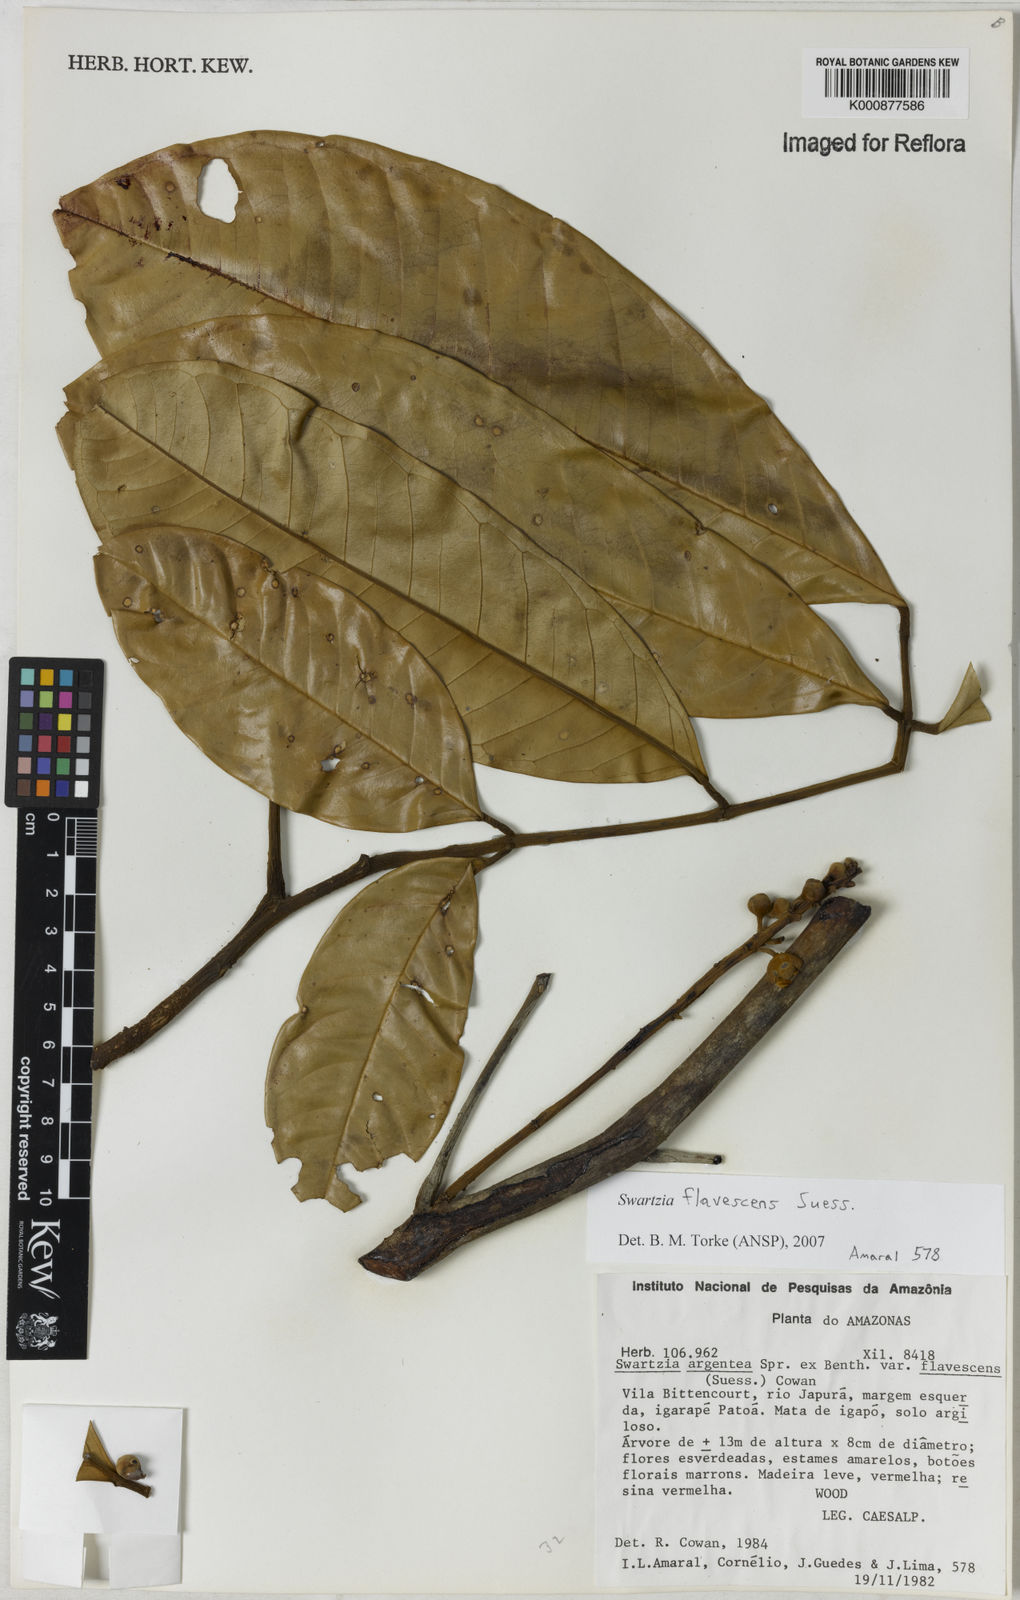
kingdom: Plantae
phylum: Tracheophyta
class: Magnoliopsida
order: Fabales
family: Fabaceae
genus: Swartzia
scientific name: Swartzia flavescens
